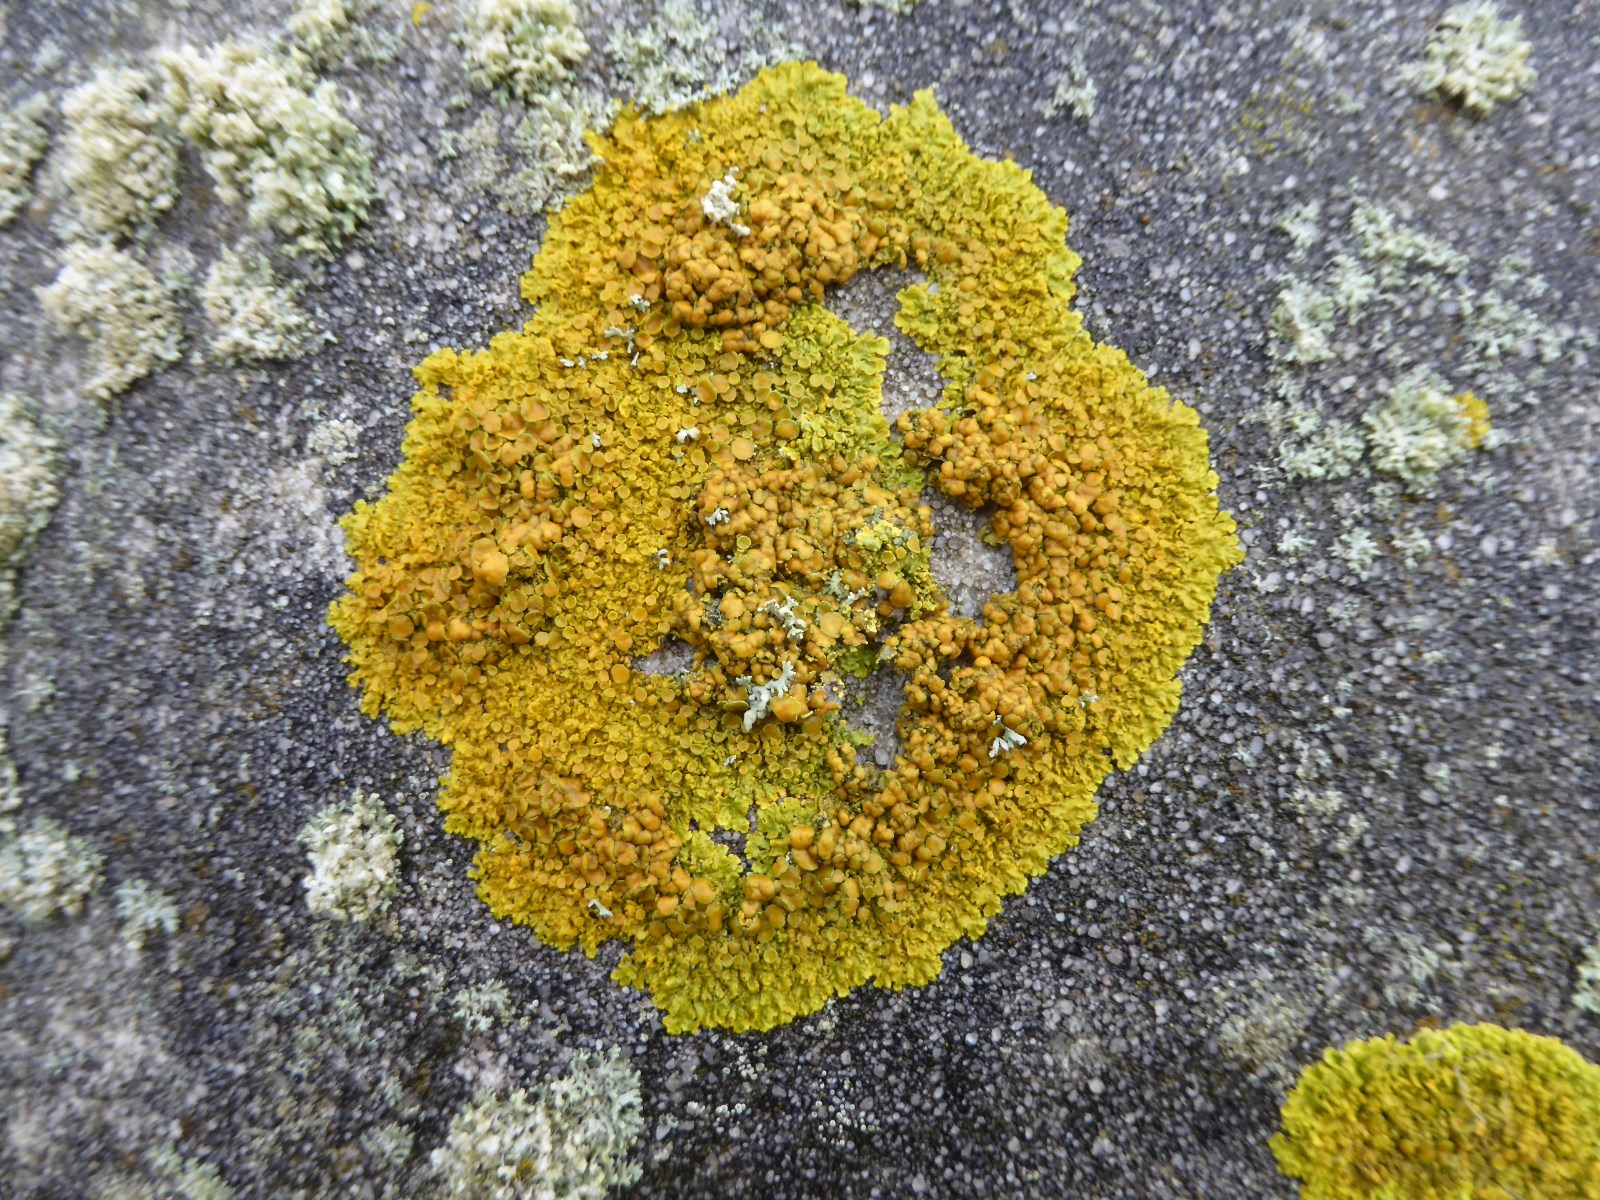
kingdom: Fungi
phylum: Ascomycota
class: Lecanoromycetes
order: Teloschistales
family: Teloschistaceae
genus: Xanthoria
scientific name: Xanthoria parietina
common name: almindelig væggelav
